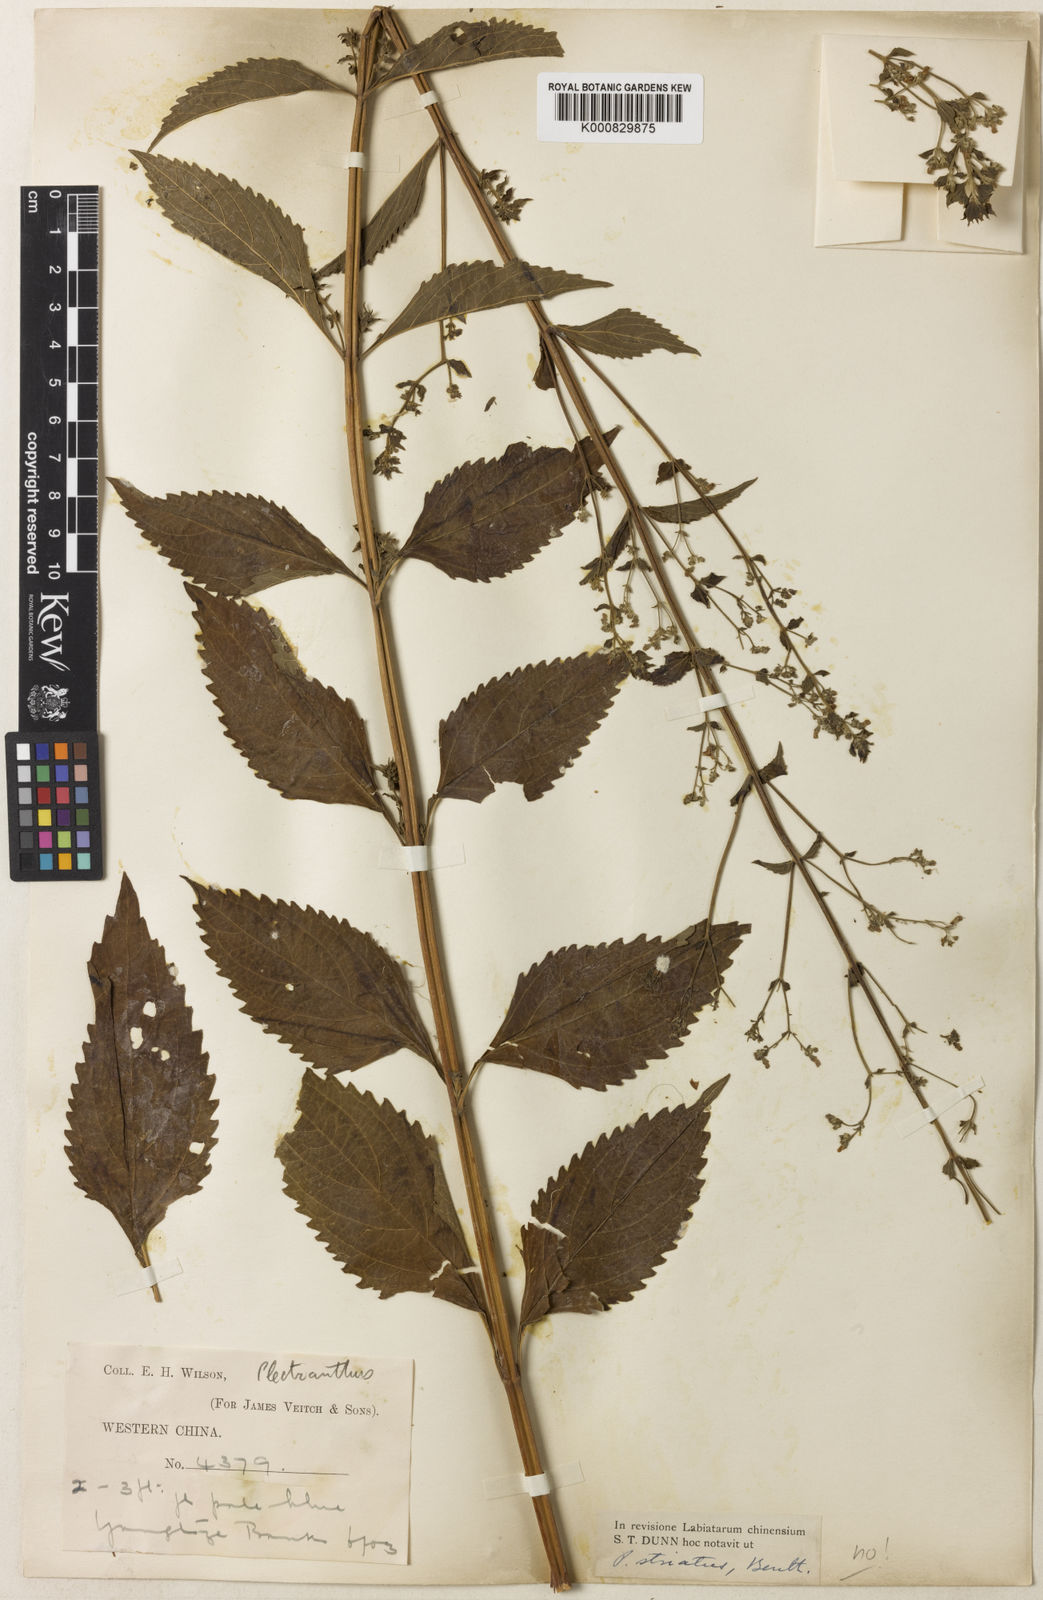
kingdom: Plantae
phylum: Tracheophyta
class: Magnoliopsida
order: Lamiales
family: Lamiaceae
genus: Isodon
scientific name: Isodon lophanthoides
